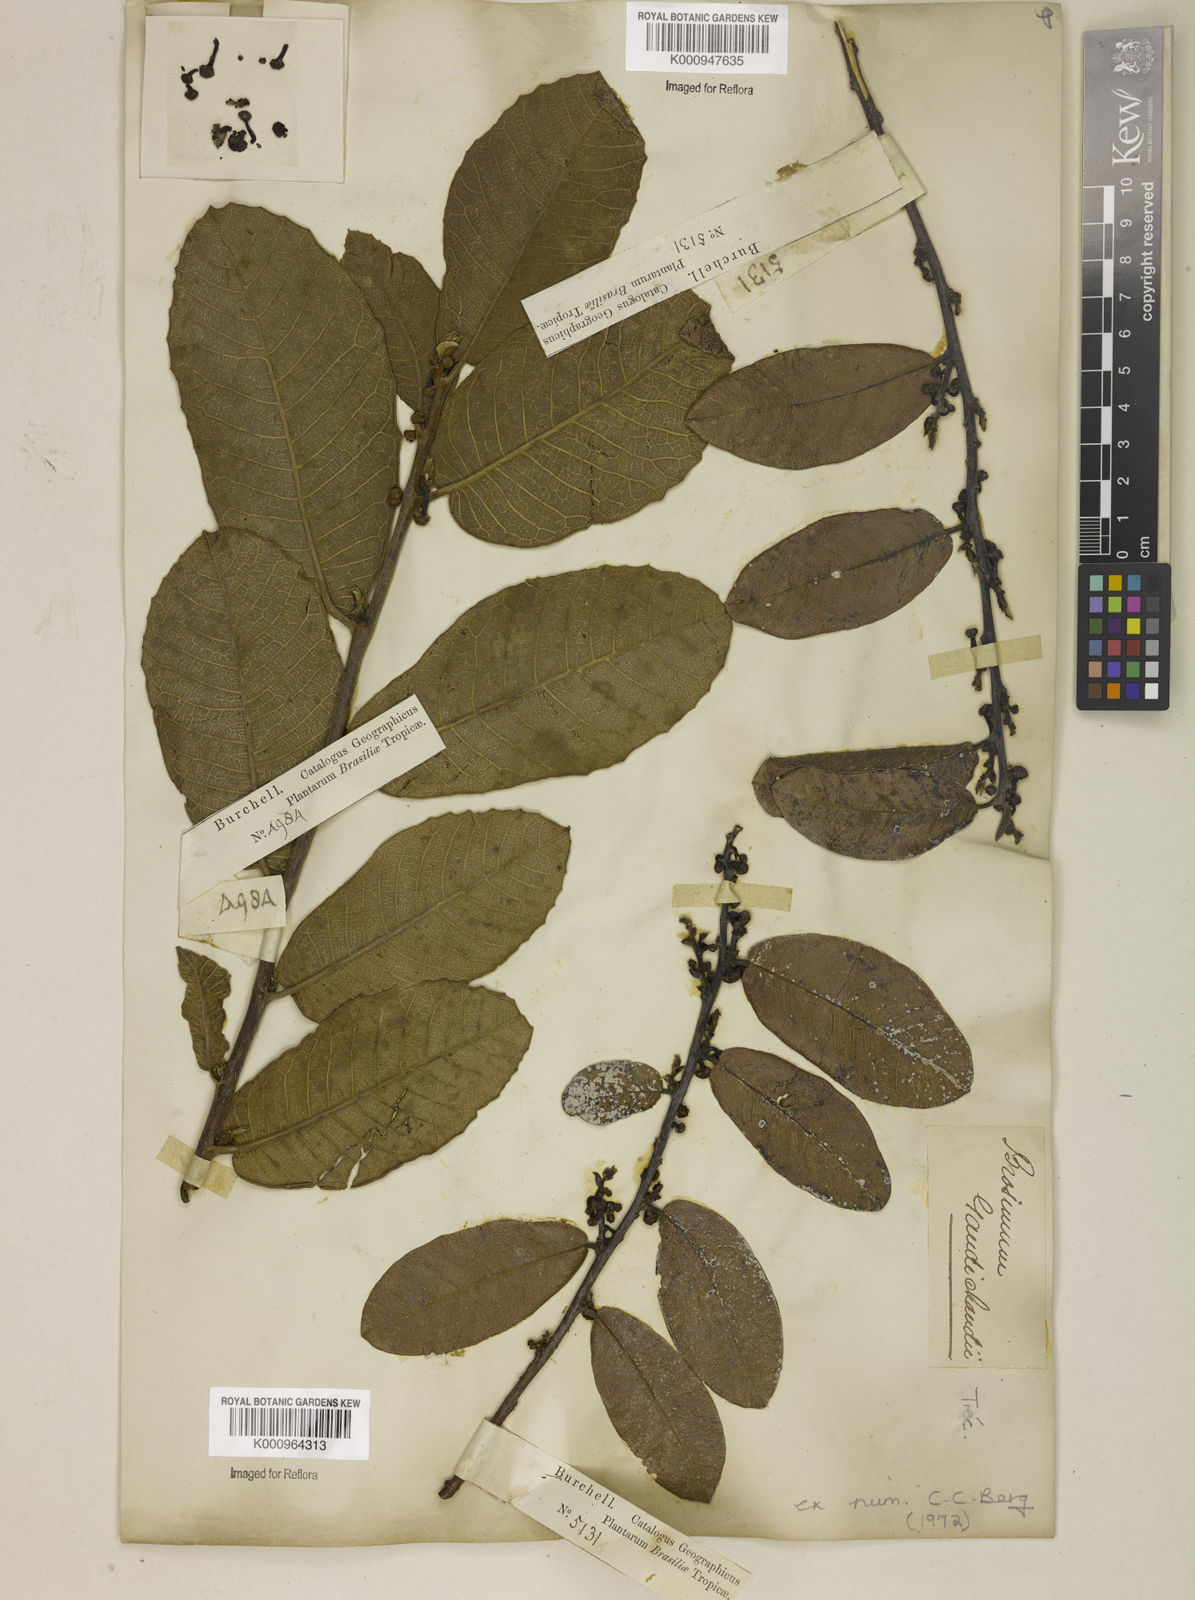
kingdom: Plantae
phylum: Tracheophyta
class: Magnoliopsida
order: Rosales
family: Moraceae
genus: Brosimum
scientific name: Brosimum gaudichaudii
